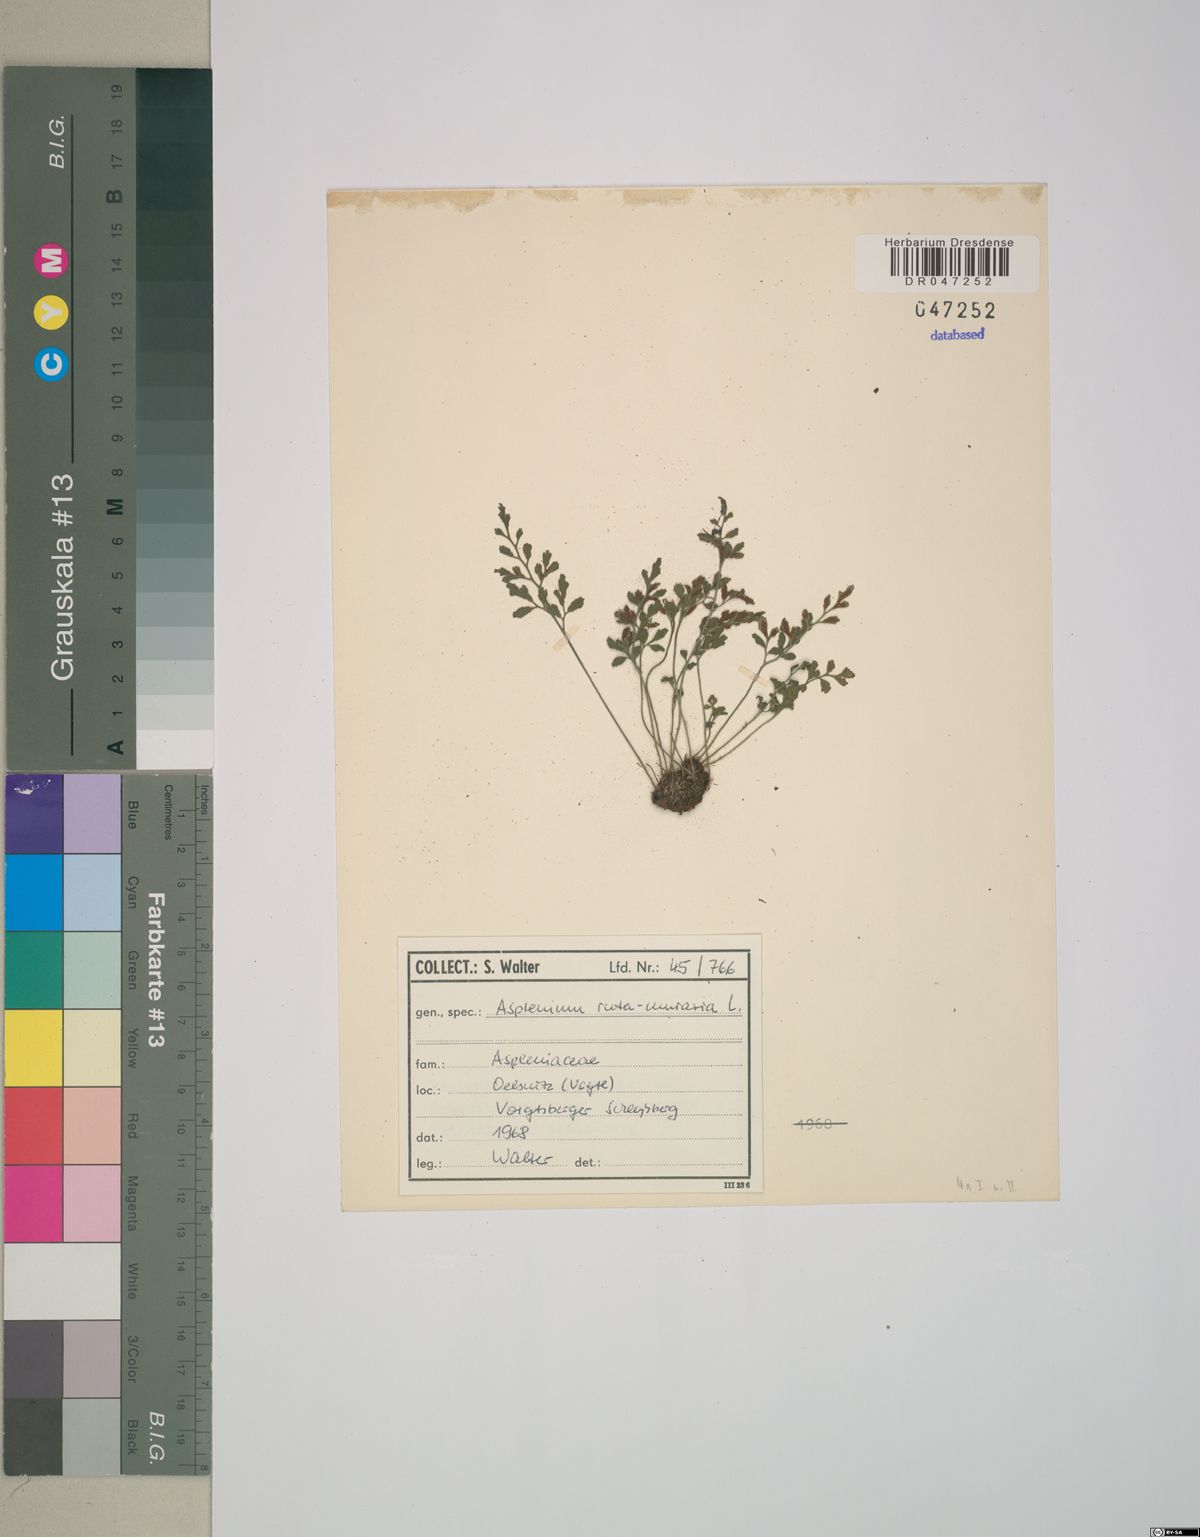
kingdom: Plantae
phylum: Tracheophyta
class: Polypodiopsida
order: Polypodiales
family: Aspleniaceae
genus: Asplenium
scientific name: Asplenium ruta-muraria
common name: Wall-rue
